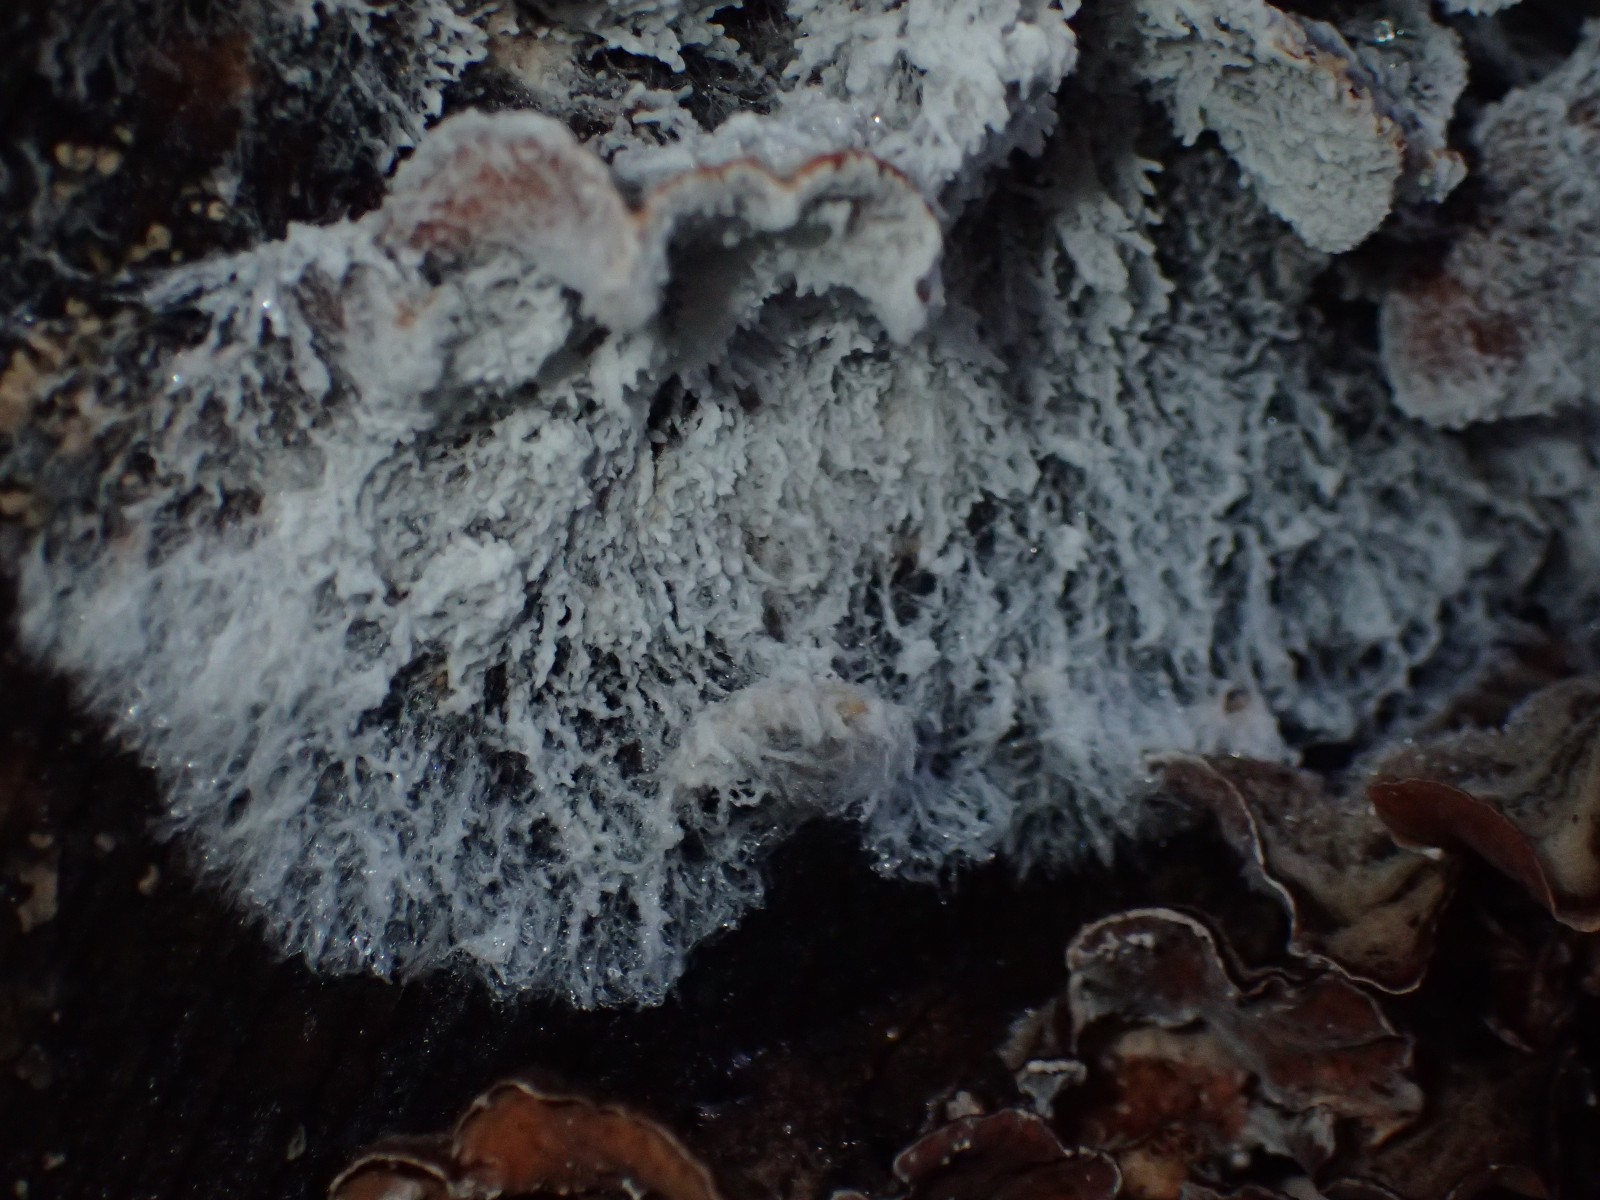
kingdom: Fungi
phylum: Ascomycota
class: Sordariomycetes
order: Hypocreales
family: Hypocreaceae
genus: Cladobotryum
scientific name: Cladobotryum stereicola
